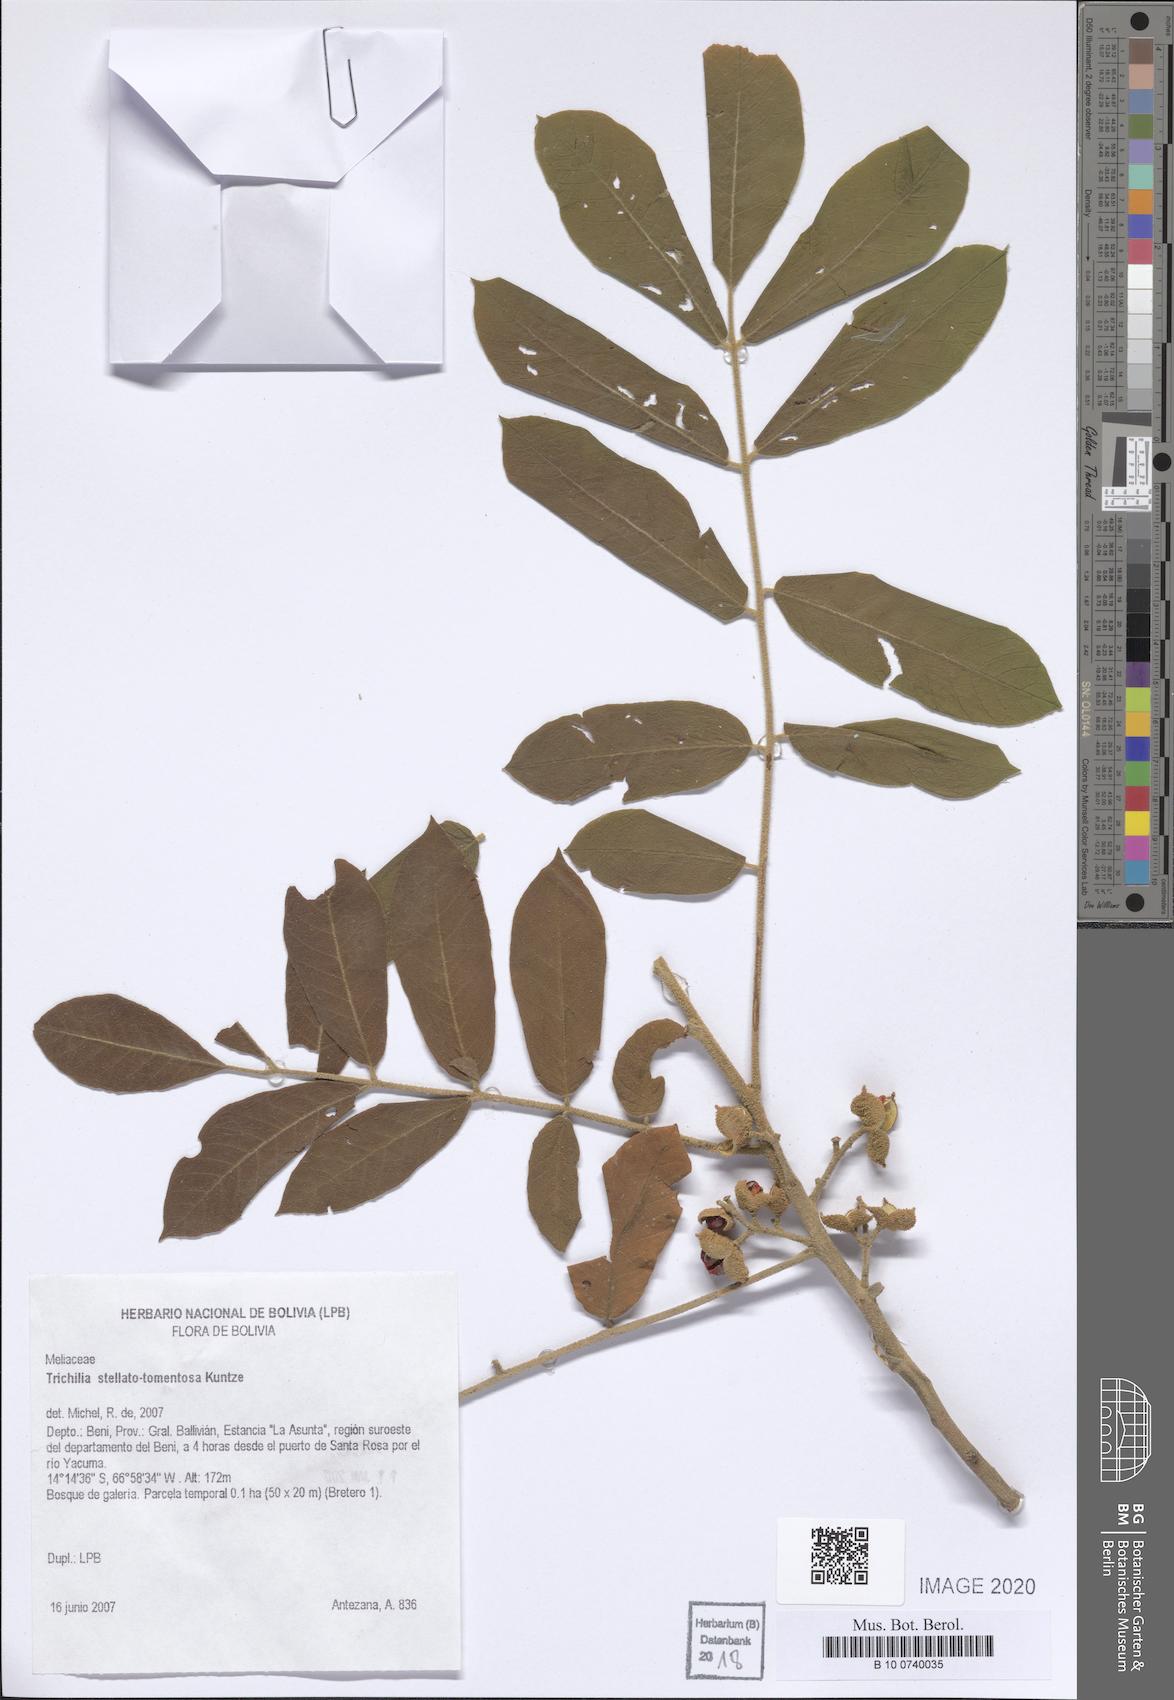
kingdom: Plantae
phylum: Tracheophyta
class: Magnoliopsida
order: Sapindales
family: Meliaceae
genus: Trichilia
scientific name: Trichilia stellatotomentosa
